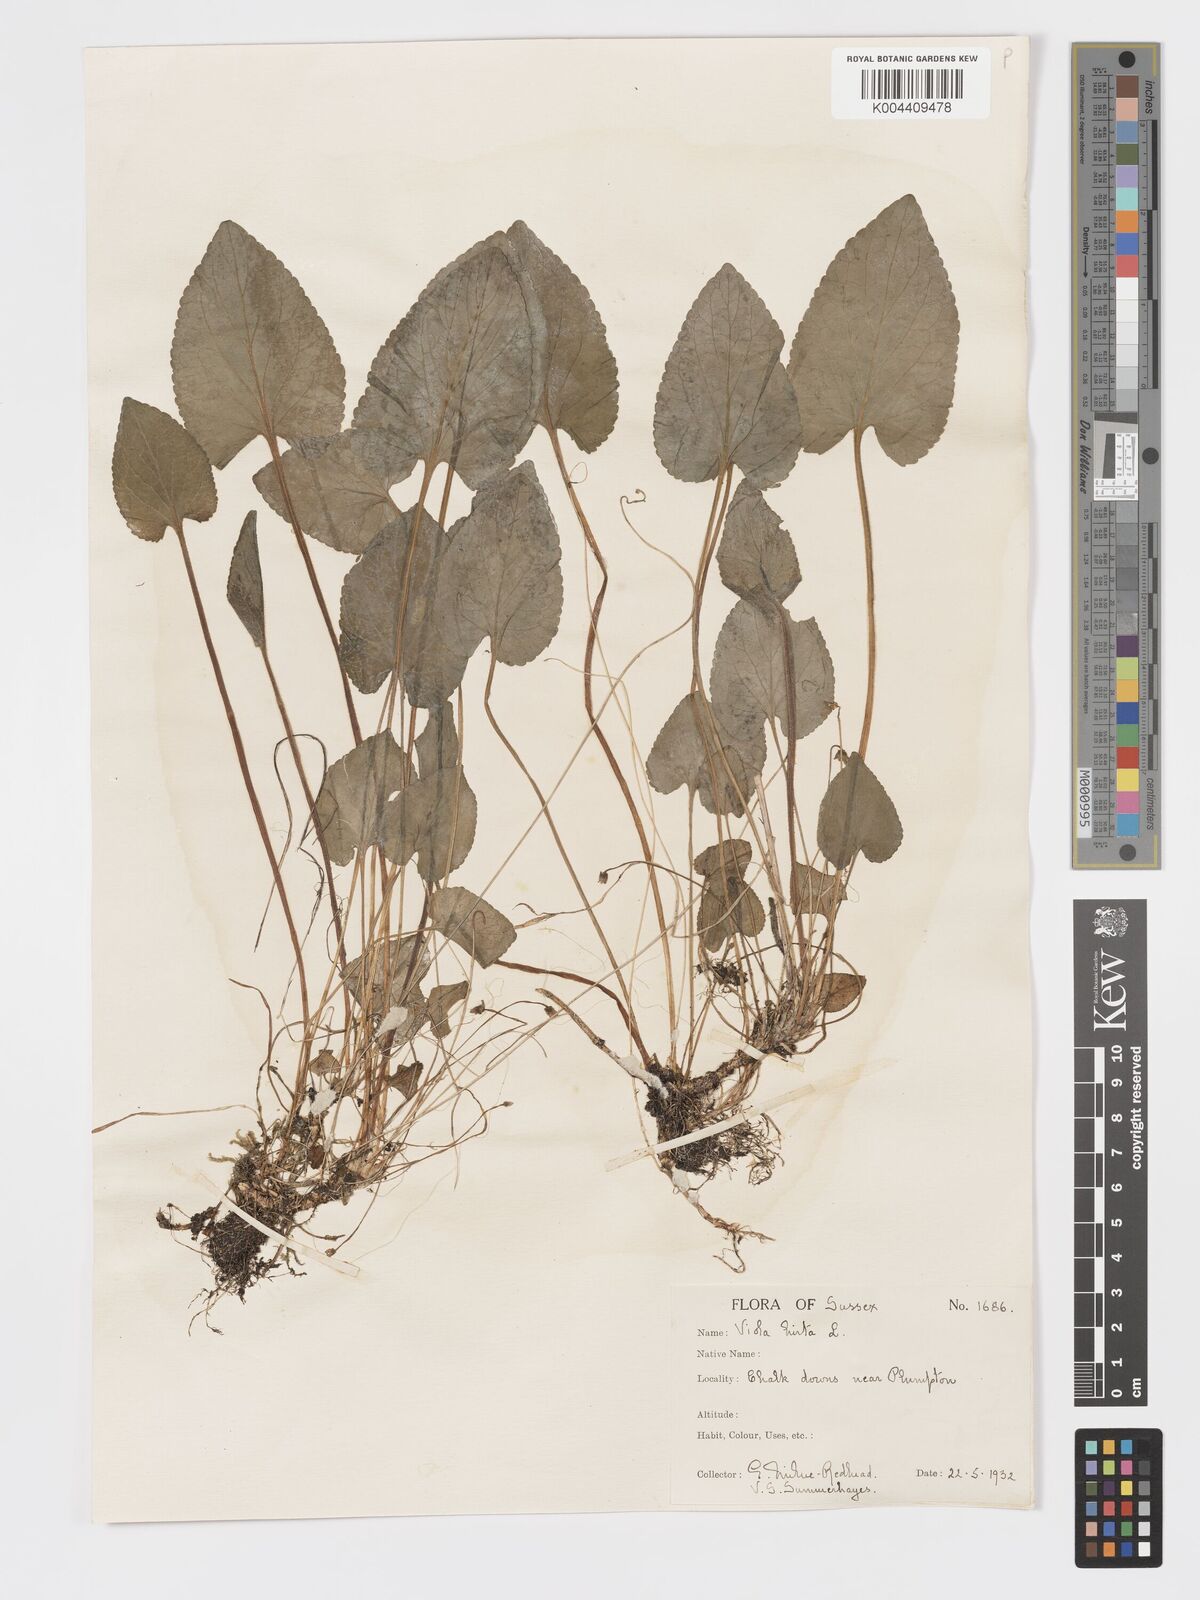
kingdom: Plantae
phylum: Tracheophyta
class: Magnoliopsida
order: Malpighiales
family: Violaceae
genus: Viola
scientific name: Viola
